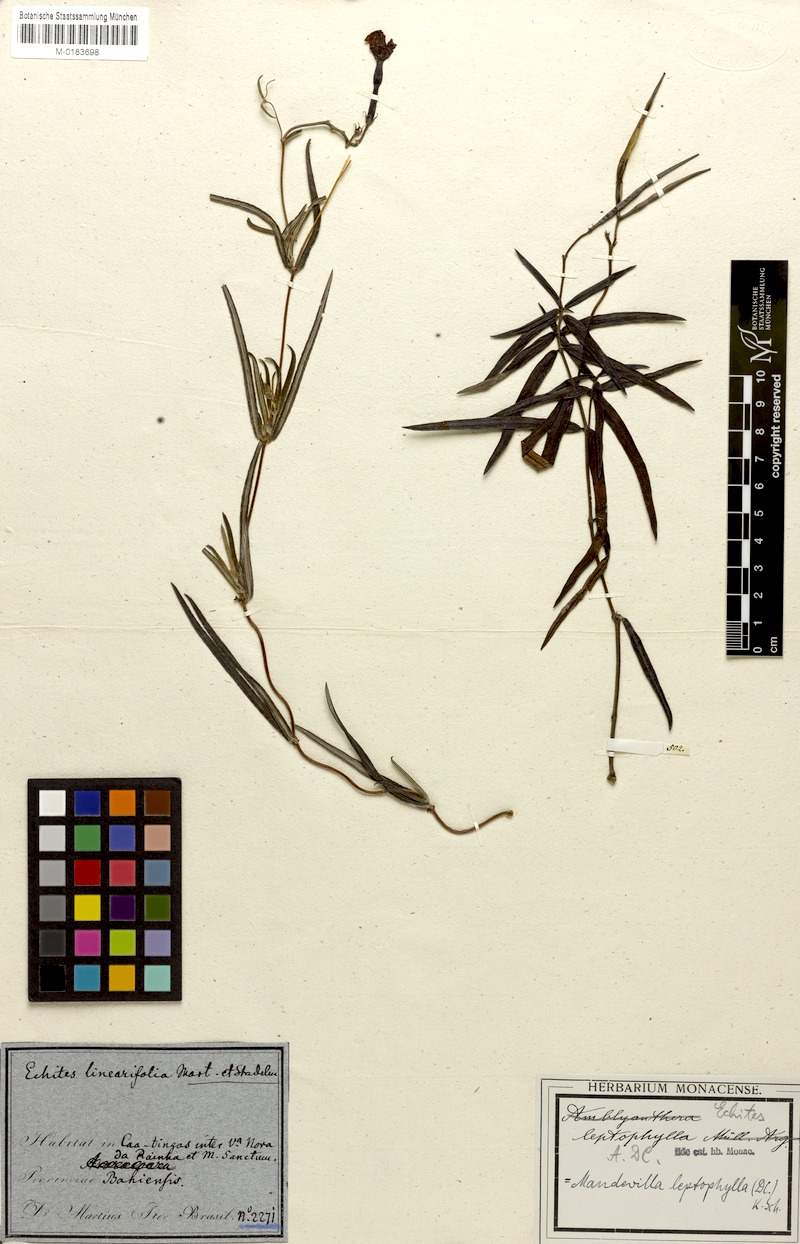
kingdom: Plantae
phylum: Tracheophyta
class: Magnoliopsida
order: Gentianales
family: Apocynaceae
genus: Mandevilla
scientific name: Mandevilla leptophylla
